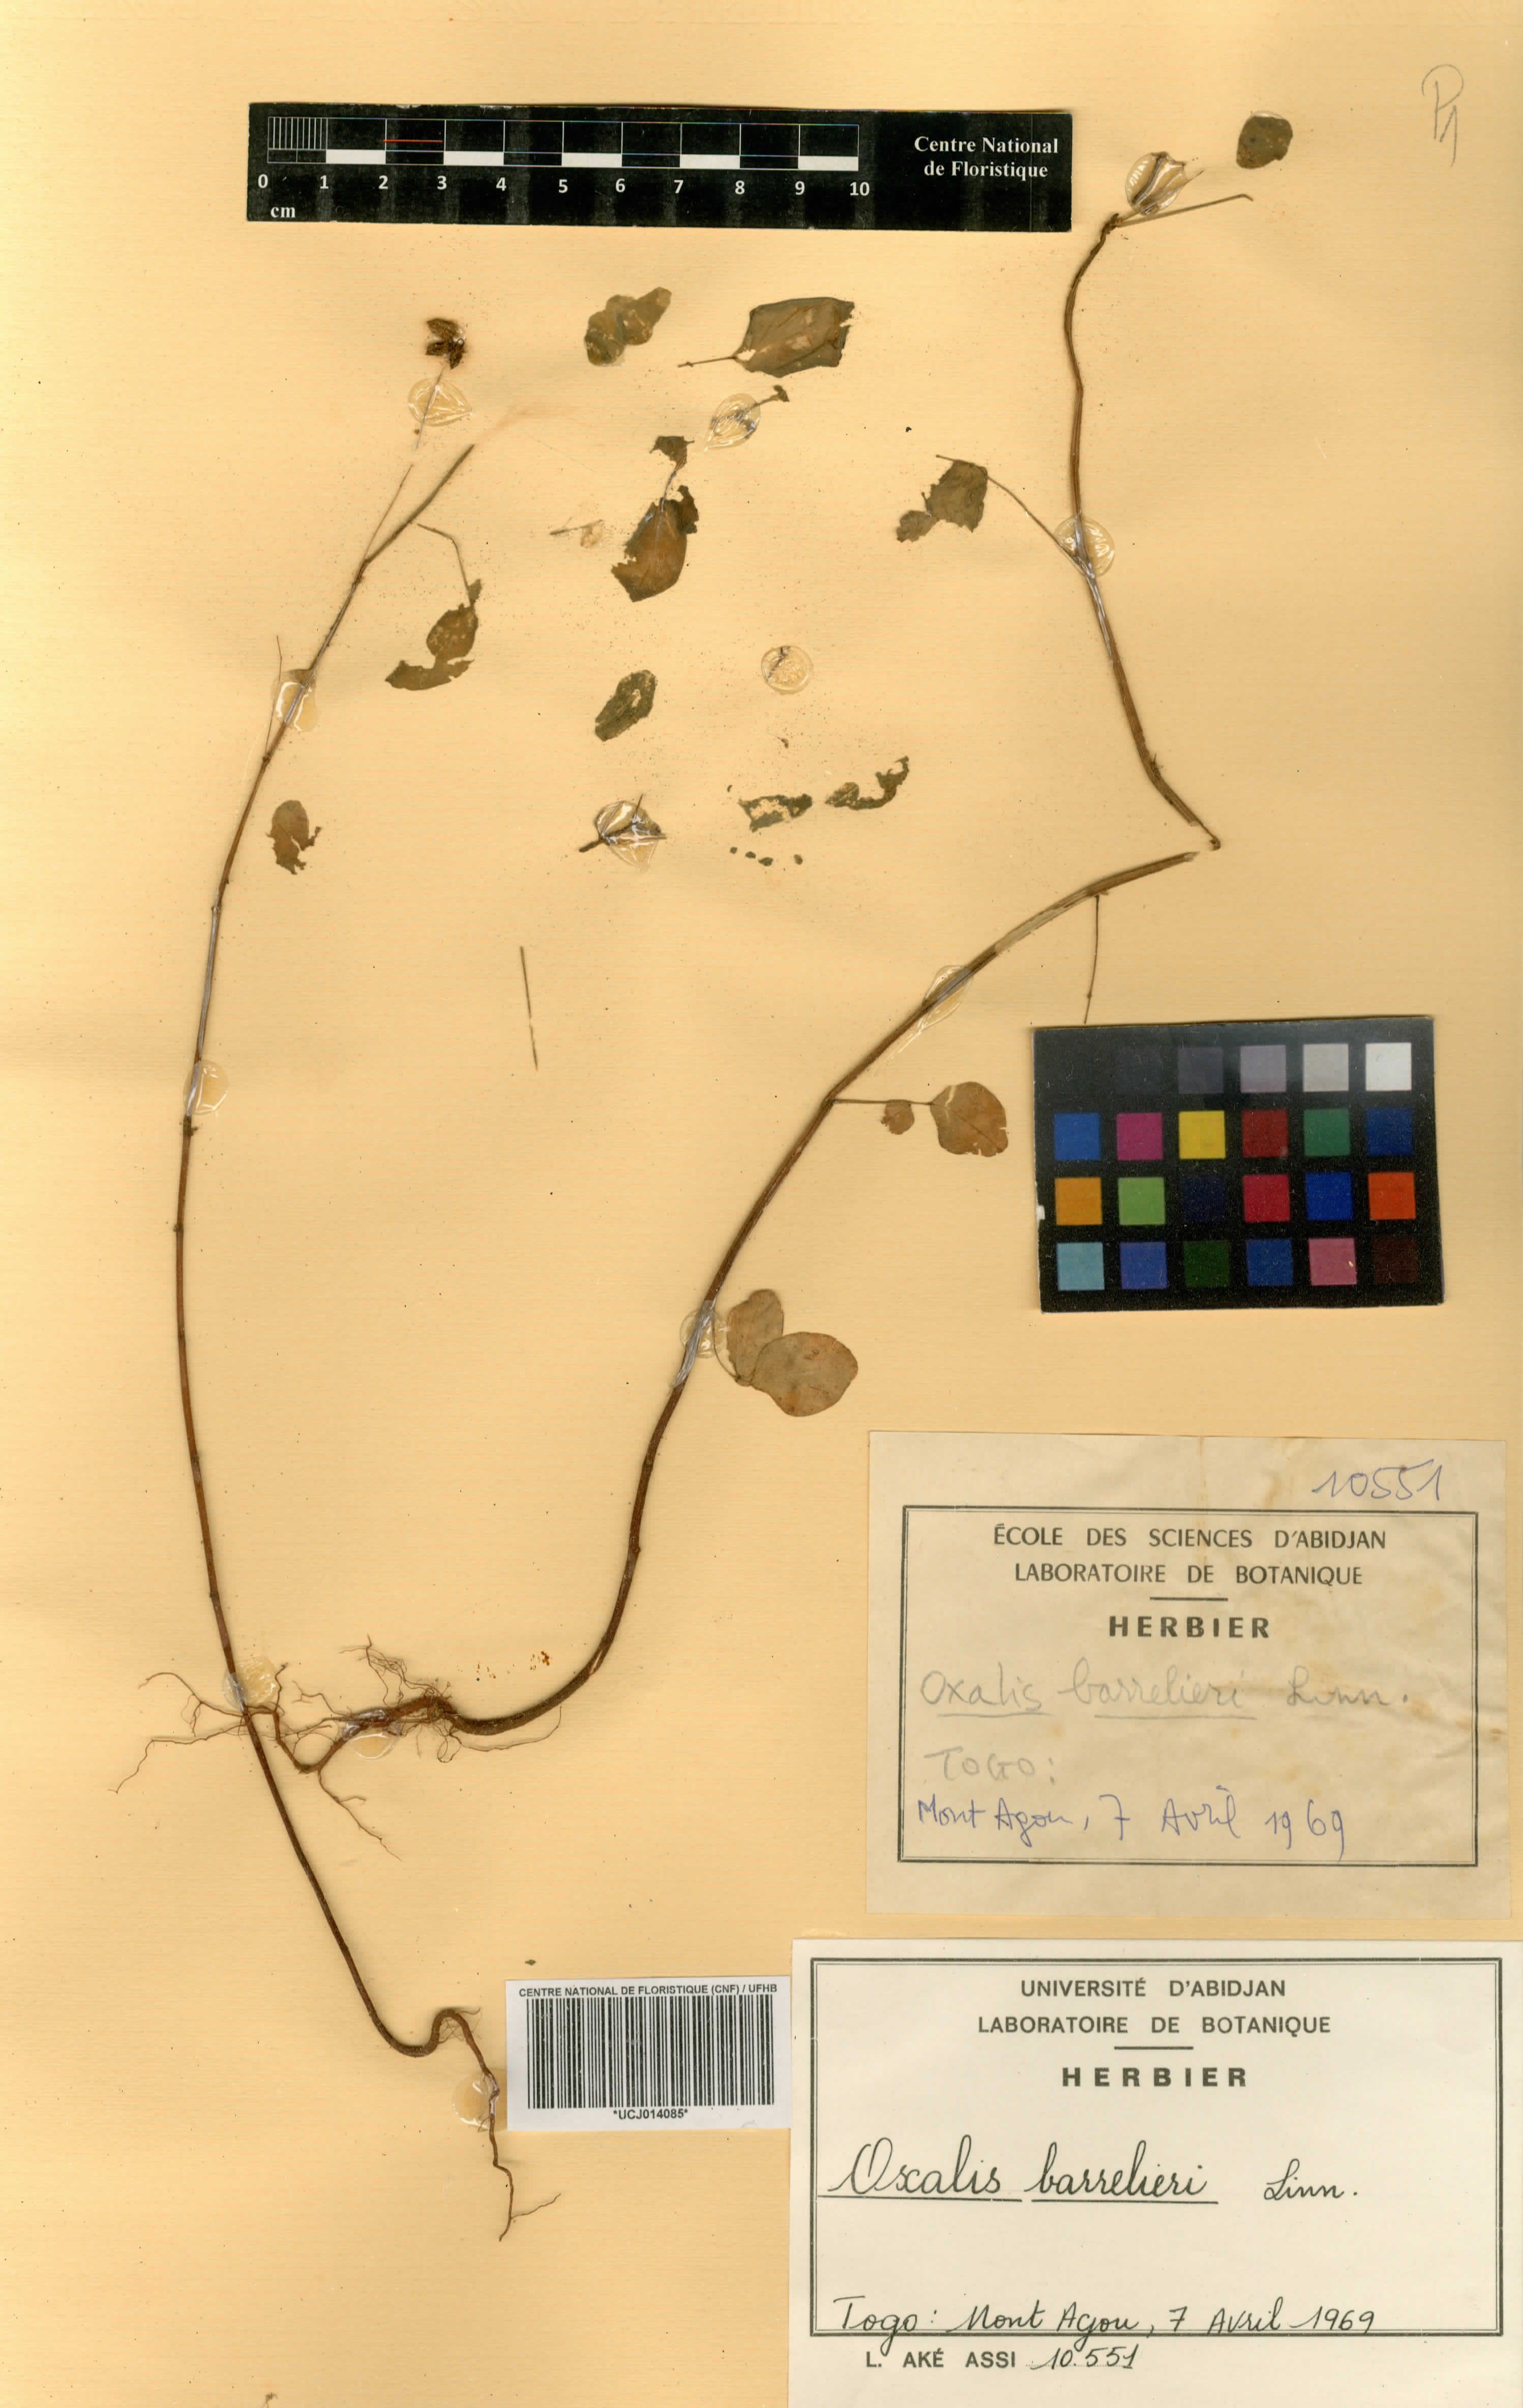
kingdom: Plantae
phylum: Tracheophyta
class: Magnoliopsida
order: Oxalidales
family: Oxalidaceae
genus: Oxalis
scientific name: Oxalis barrelieri
